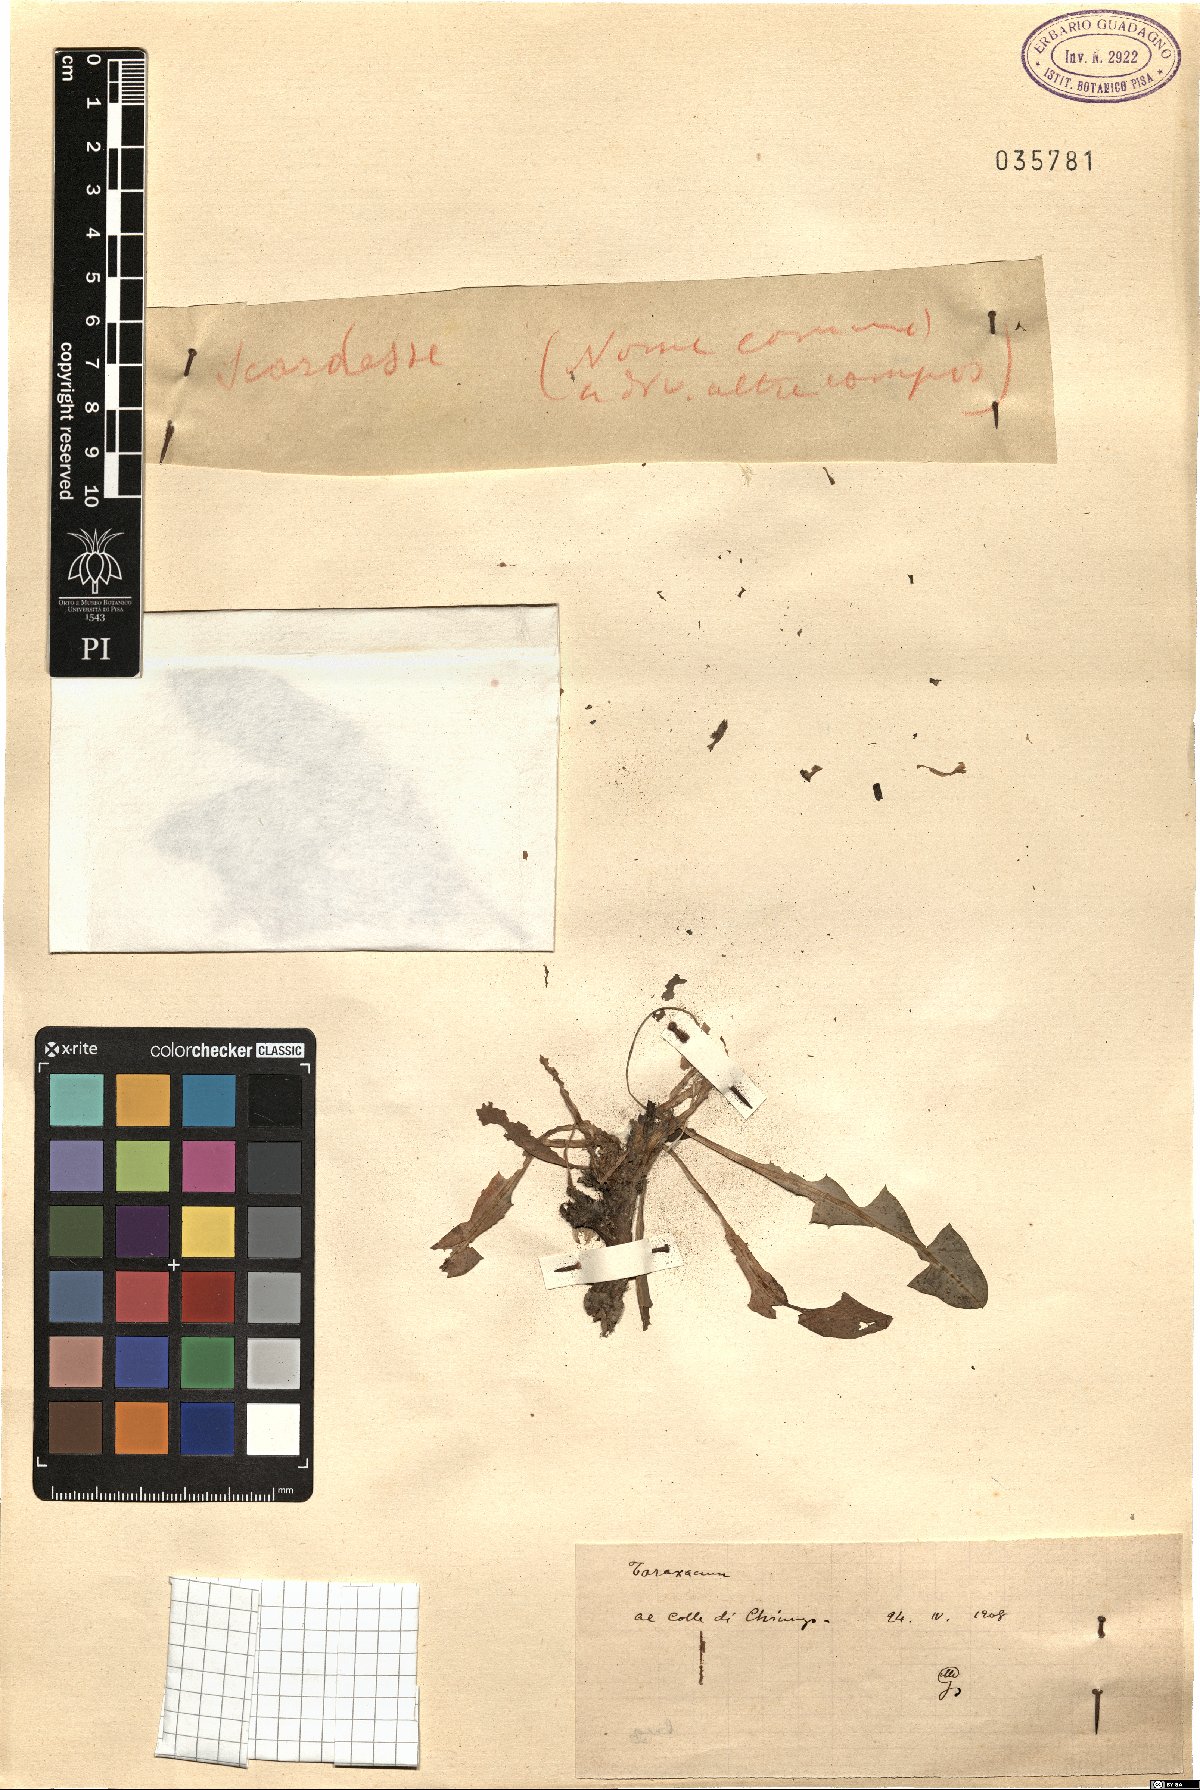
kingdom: Plantae
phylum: Tracheophyta
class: Magnoliopsida
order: Asterales
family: Asteraceae
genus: Taraxacum
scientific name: Taraxacum
